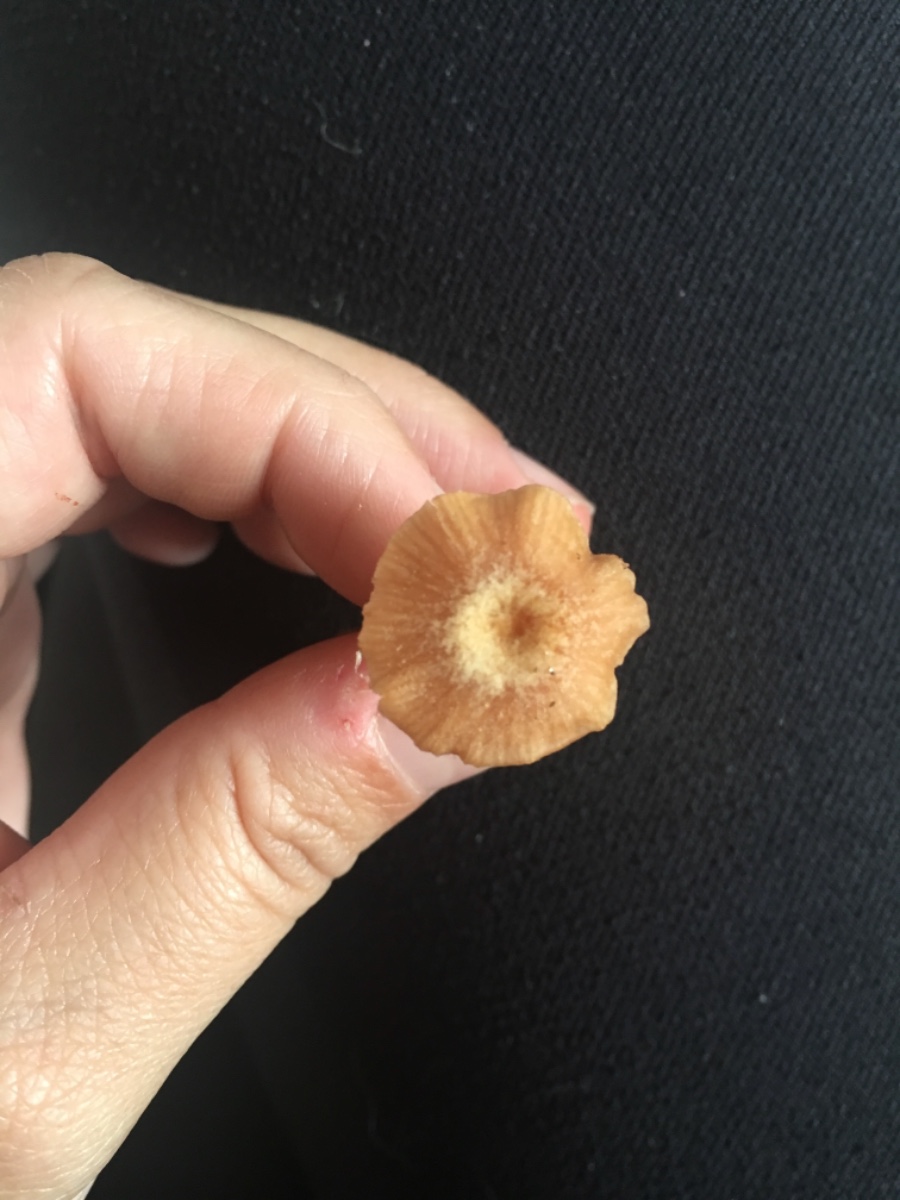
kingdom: Fungi
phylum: Basidiomycota
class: Agaricomycetes
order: Agaricales
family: Hydnangiaceae
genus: Laccaria
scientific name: Laccaria laccata
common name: rød ametysthat
